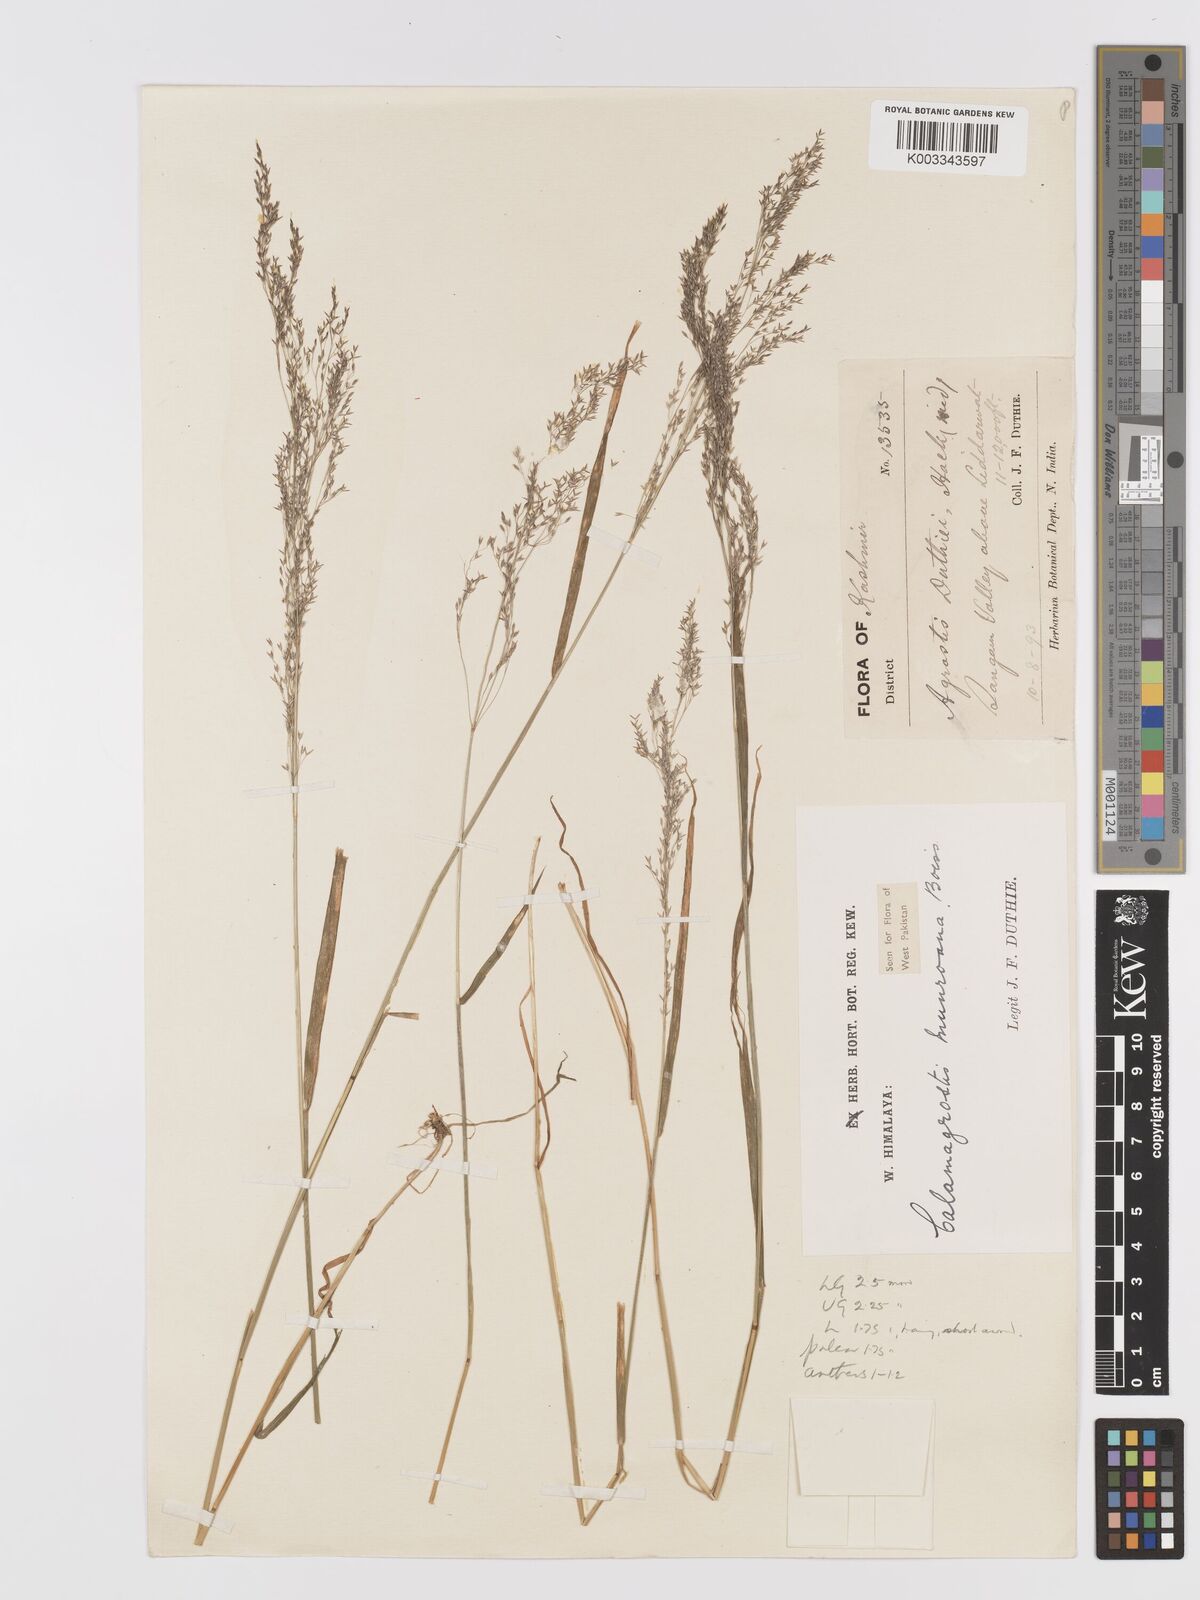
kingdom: Plantae
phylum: Tracheophyta
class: Liliopsida
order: Poales
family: Poaceae
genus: Agrostis
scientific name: Agrostis munroana
